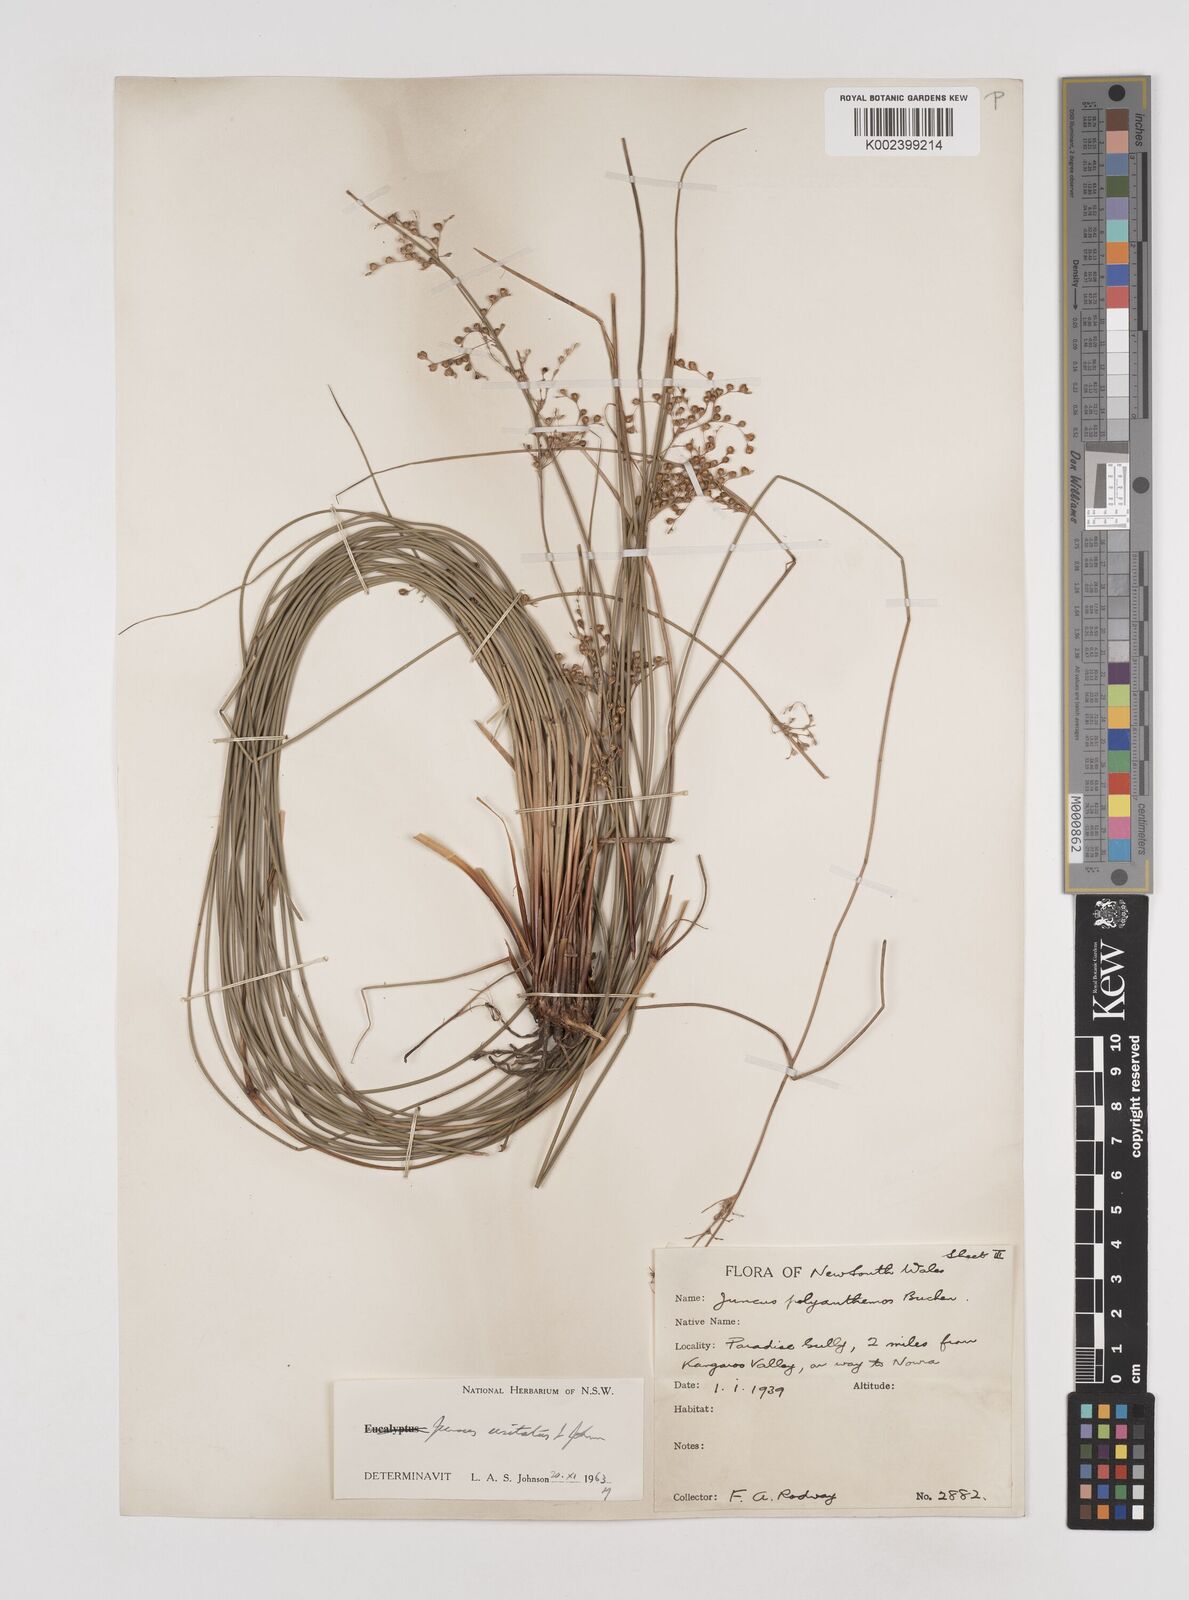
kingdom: Plantae
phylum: Tracheophyta
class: Liliopsida
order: Poales
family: Juncaceae
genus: Juncus
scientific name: Juncus usitatus
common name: Rush
